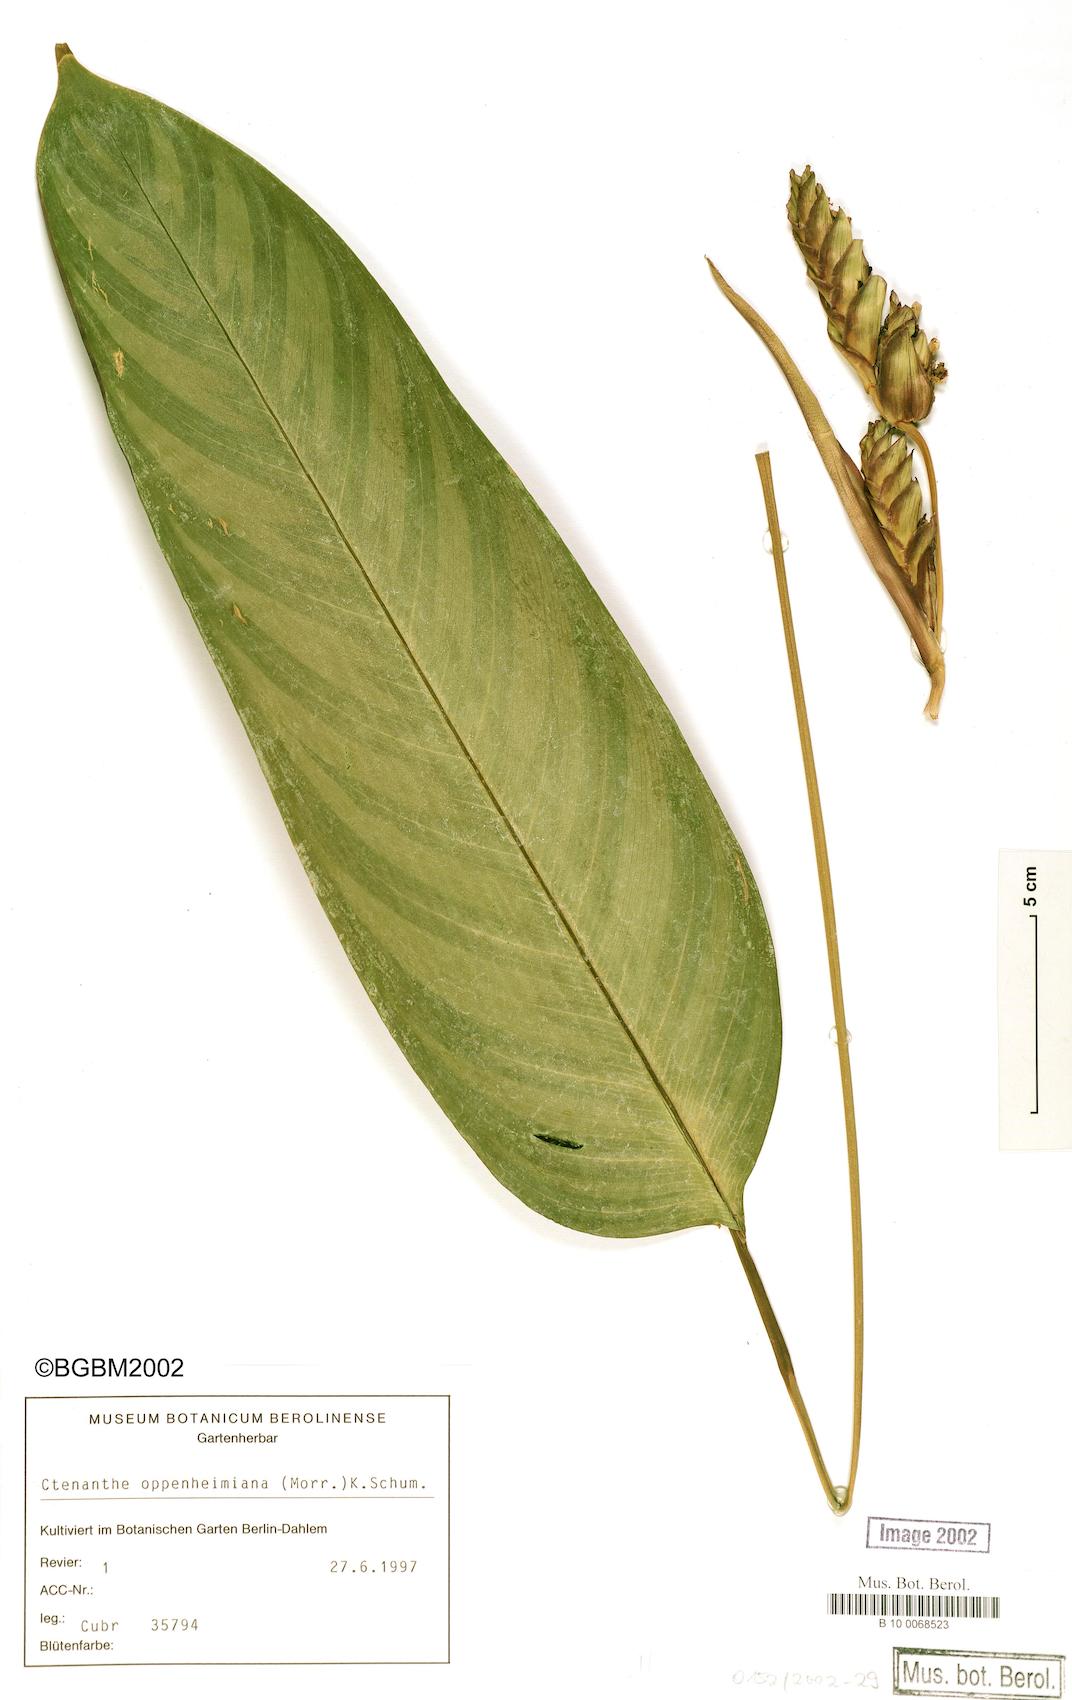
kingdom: Plantae
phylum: Tracheophyta
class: Liliopsida
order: Zingiberales
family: Marantaceae
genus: Ctenanthe
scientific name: Ctenanthe oppenheimiana
